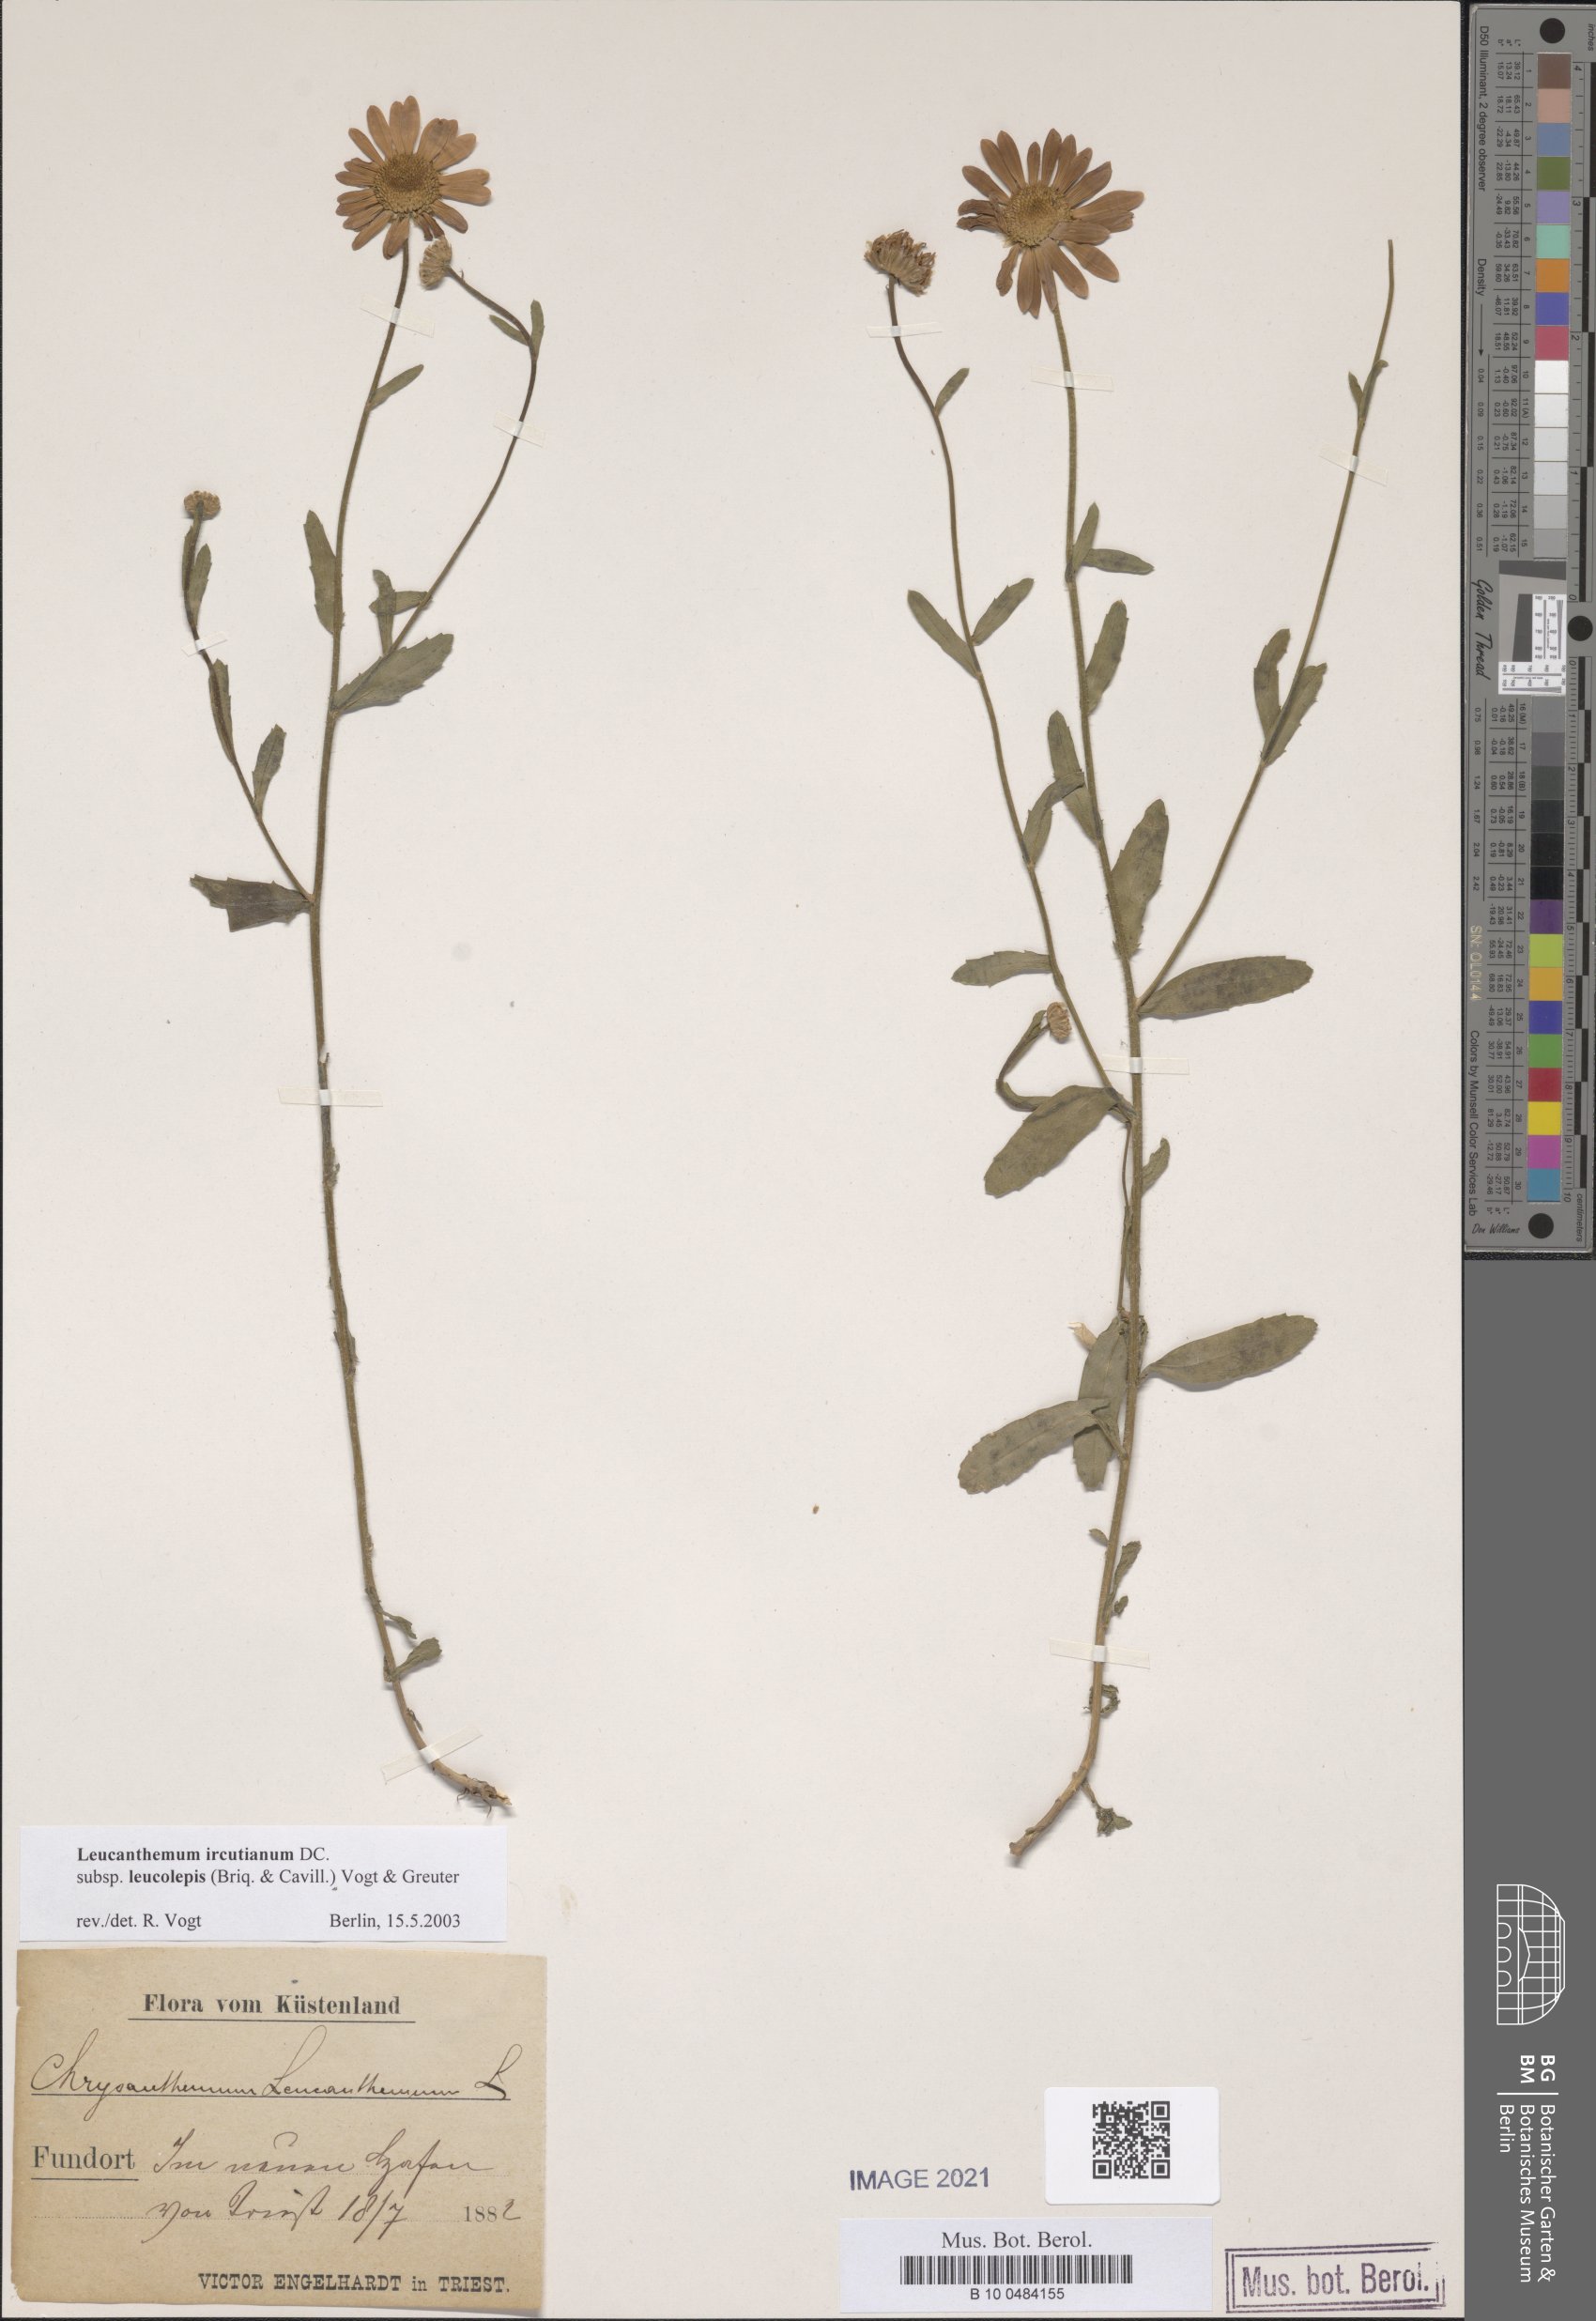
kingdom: Plantae
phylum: Tracheophyta
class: Magnoliopsida
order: Asterales
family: Asteraceae
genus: Leucanthemum
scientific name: Leucanthemum ircutianum
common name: Daisy
